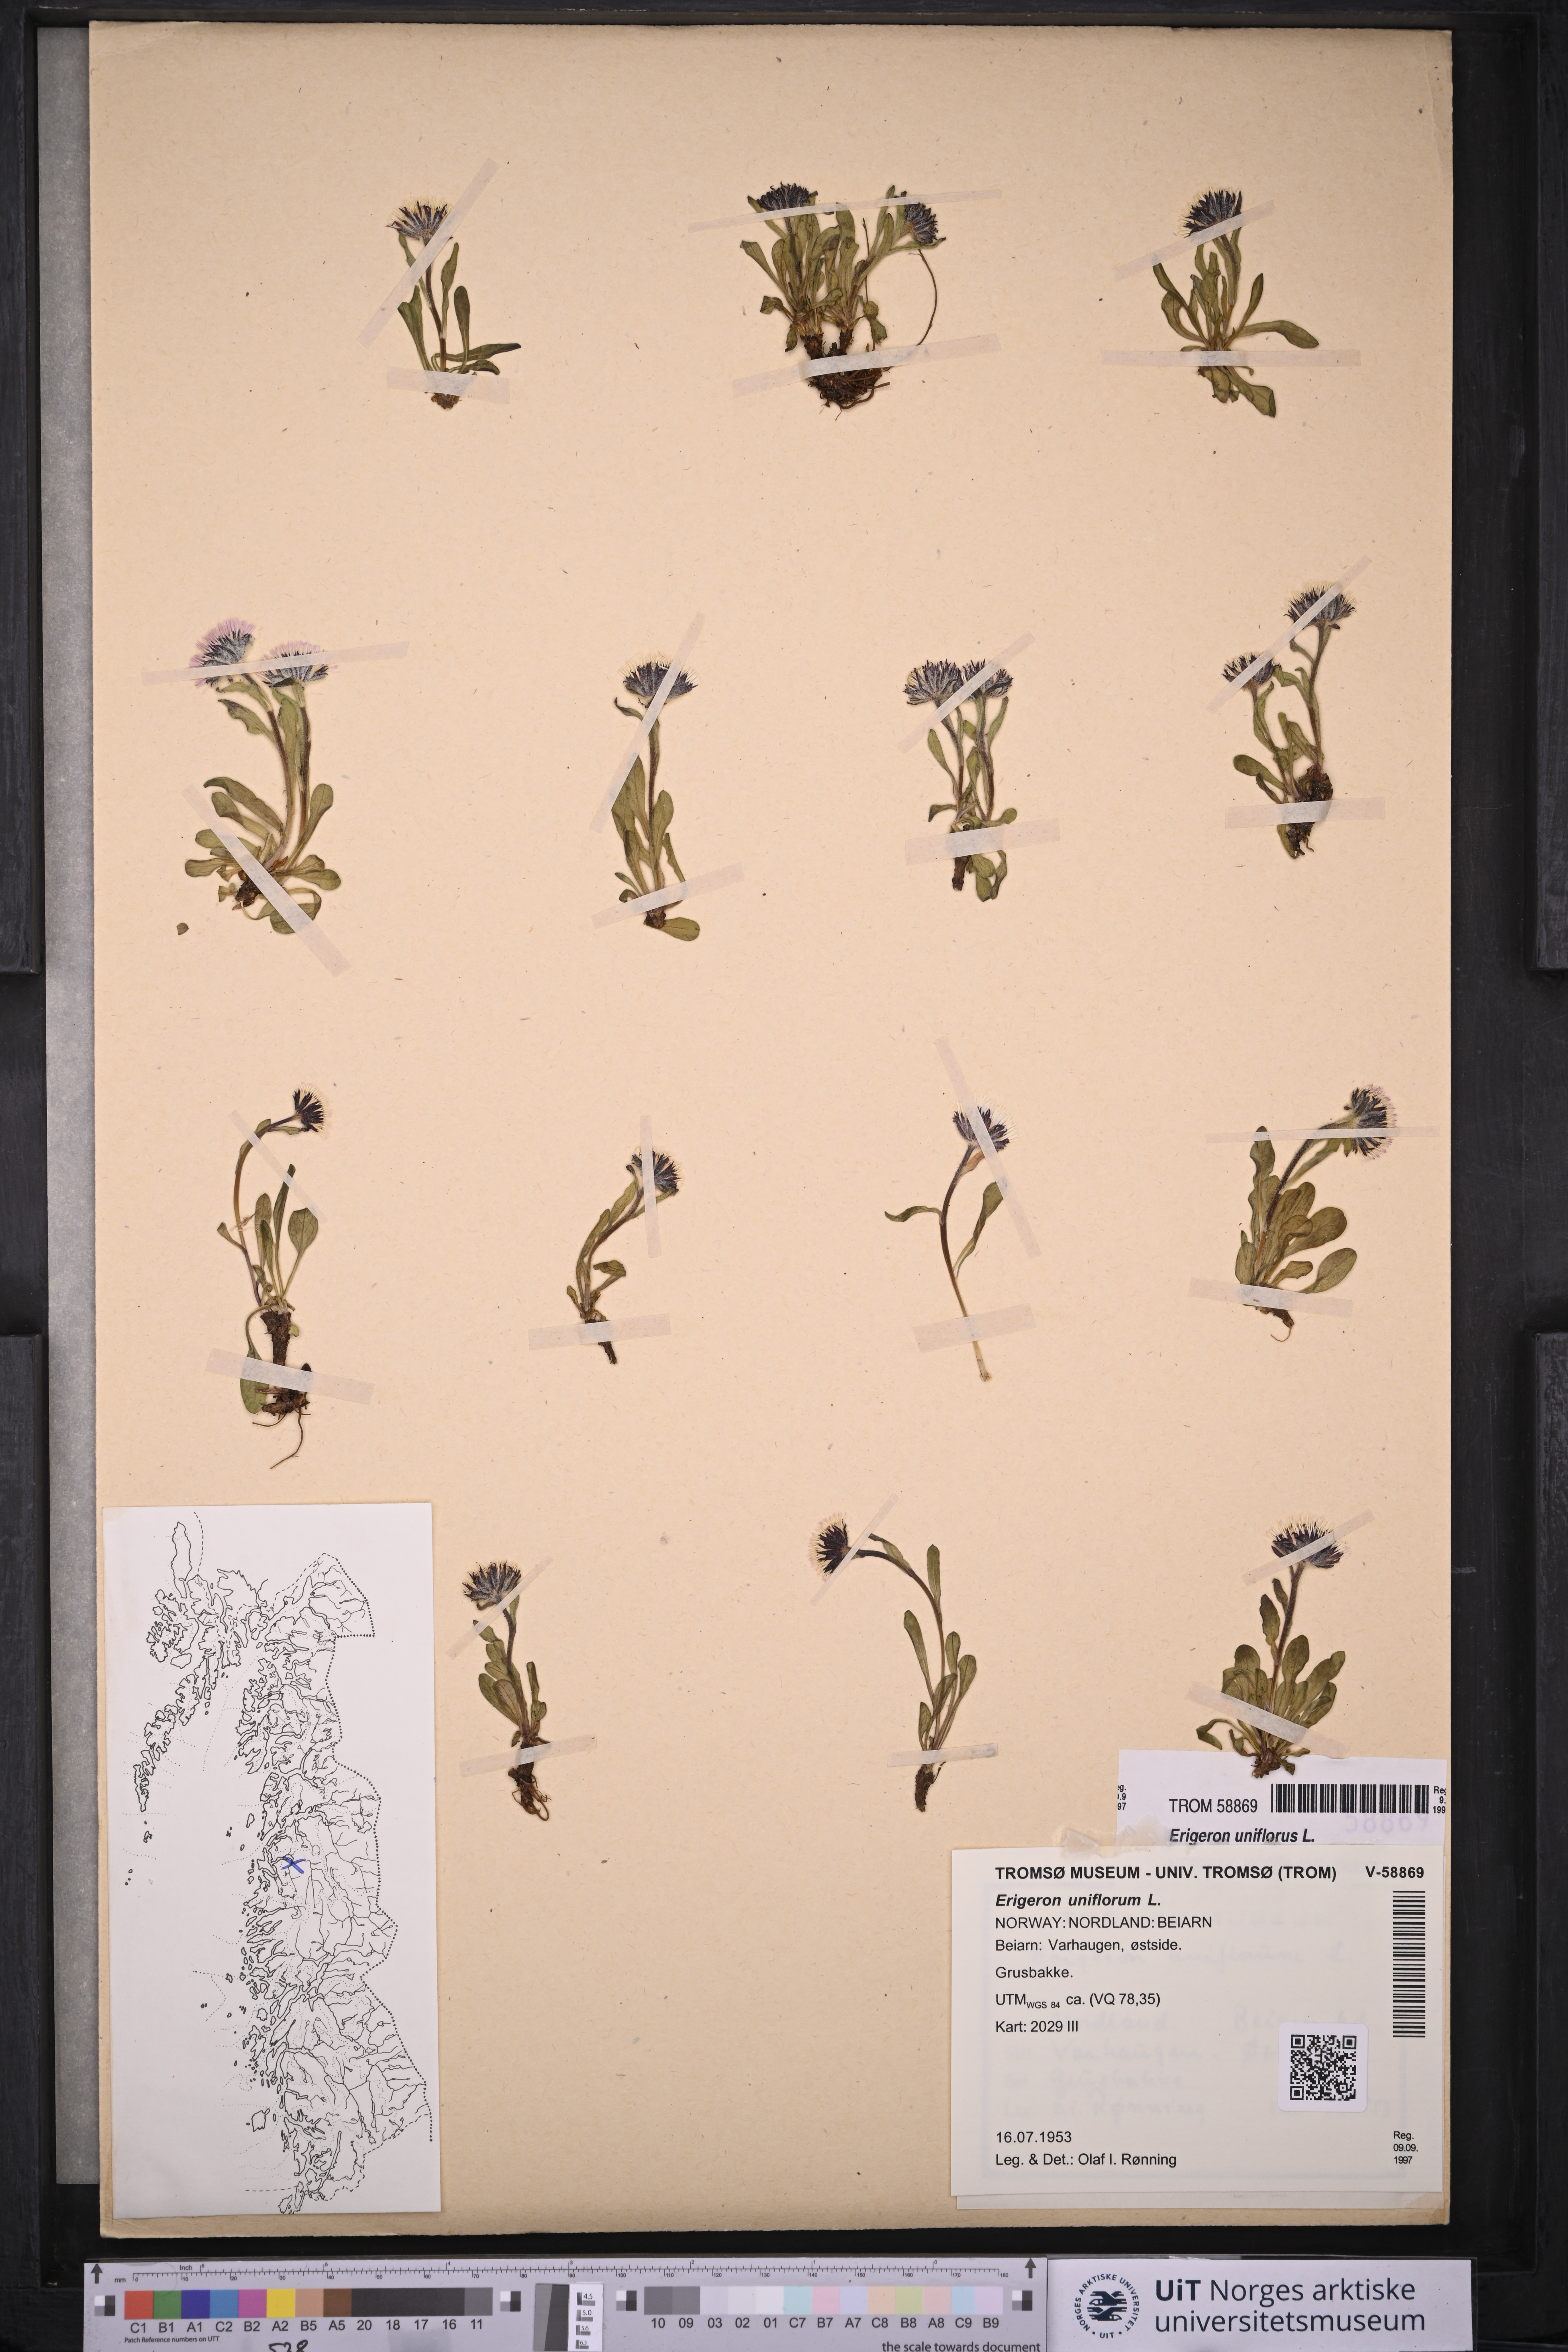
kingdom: Plantae
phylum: Tracheophyta
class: Magnoliopsida
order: Asterales
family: Asteraceae
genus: Erigeron
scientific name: Erigeron uniflorus
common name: Northern daisy
